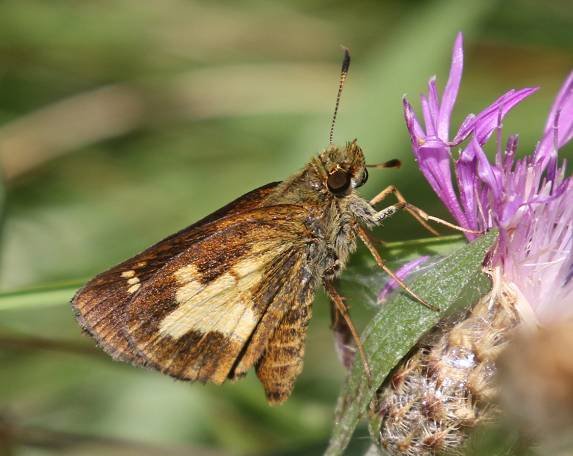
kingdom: Animalia
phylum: Arthropoda
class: Insecta
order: Lepidoptera
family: Hesperiidae
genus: Poanes
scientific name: Poanes massasoit
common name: Mulberry Wing
